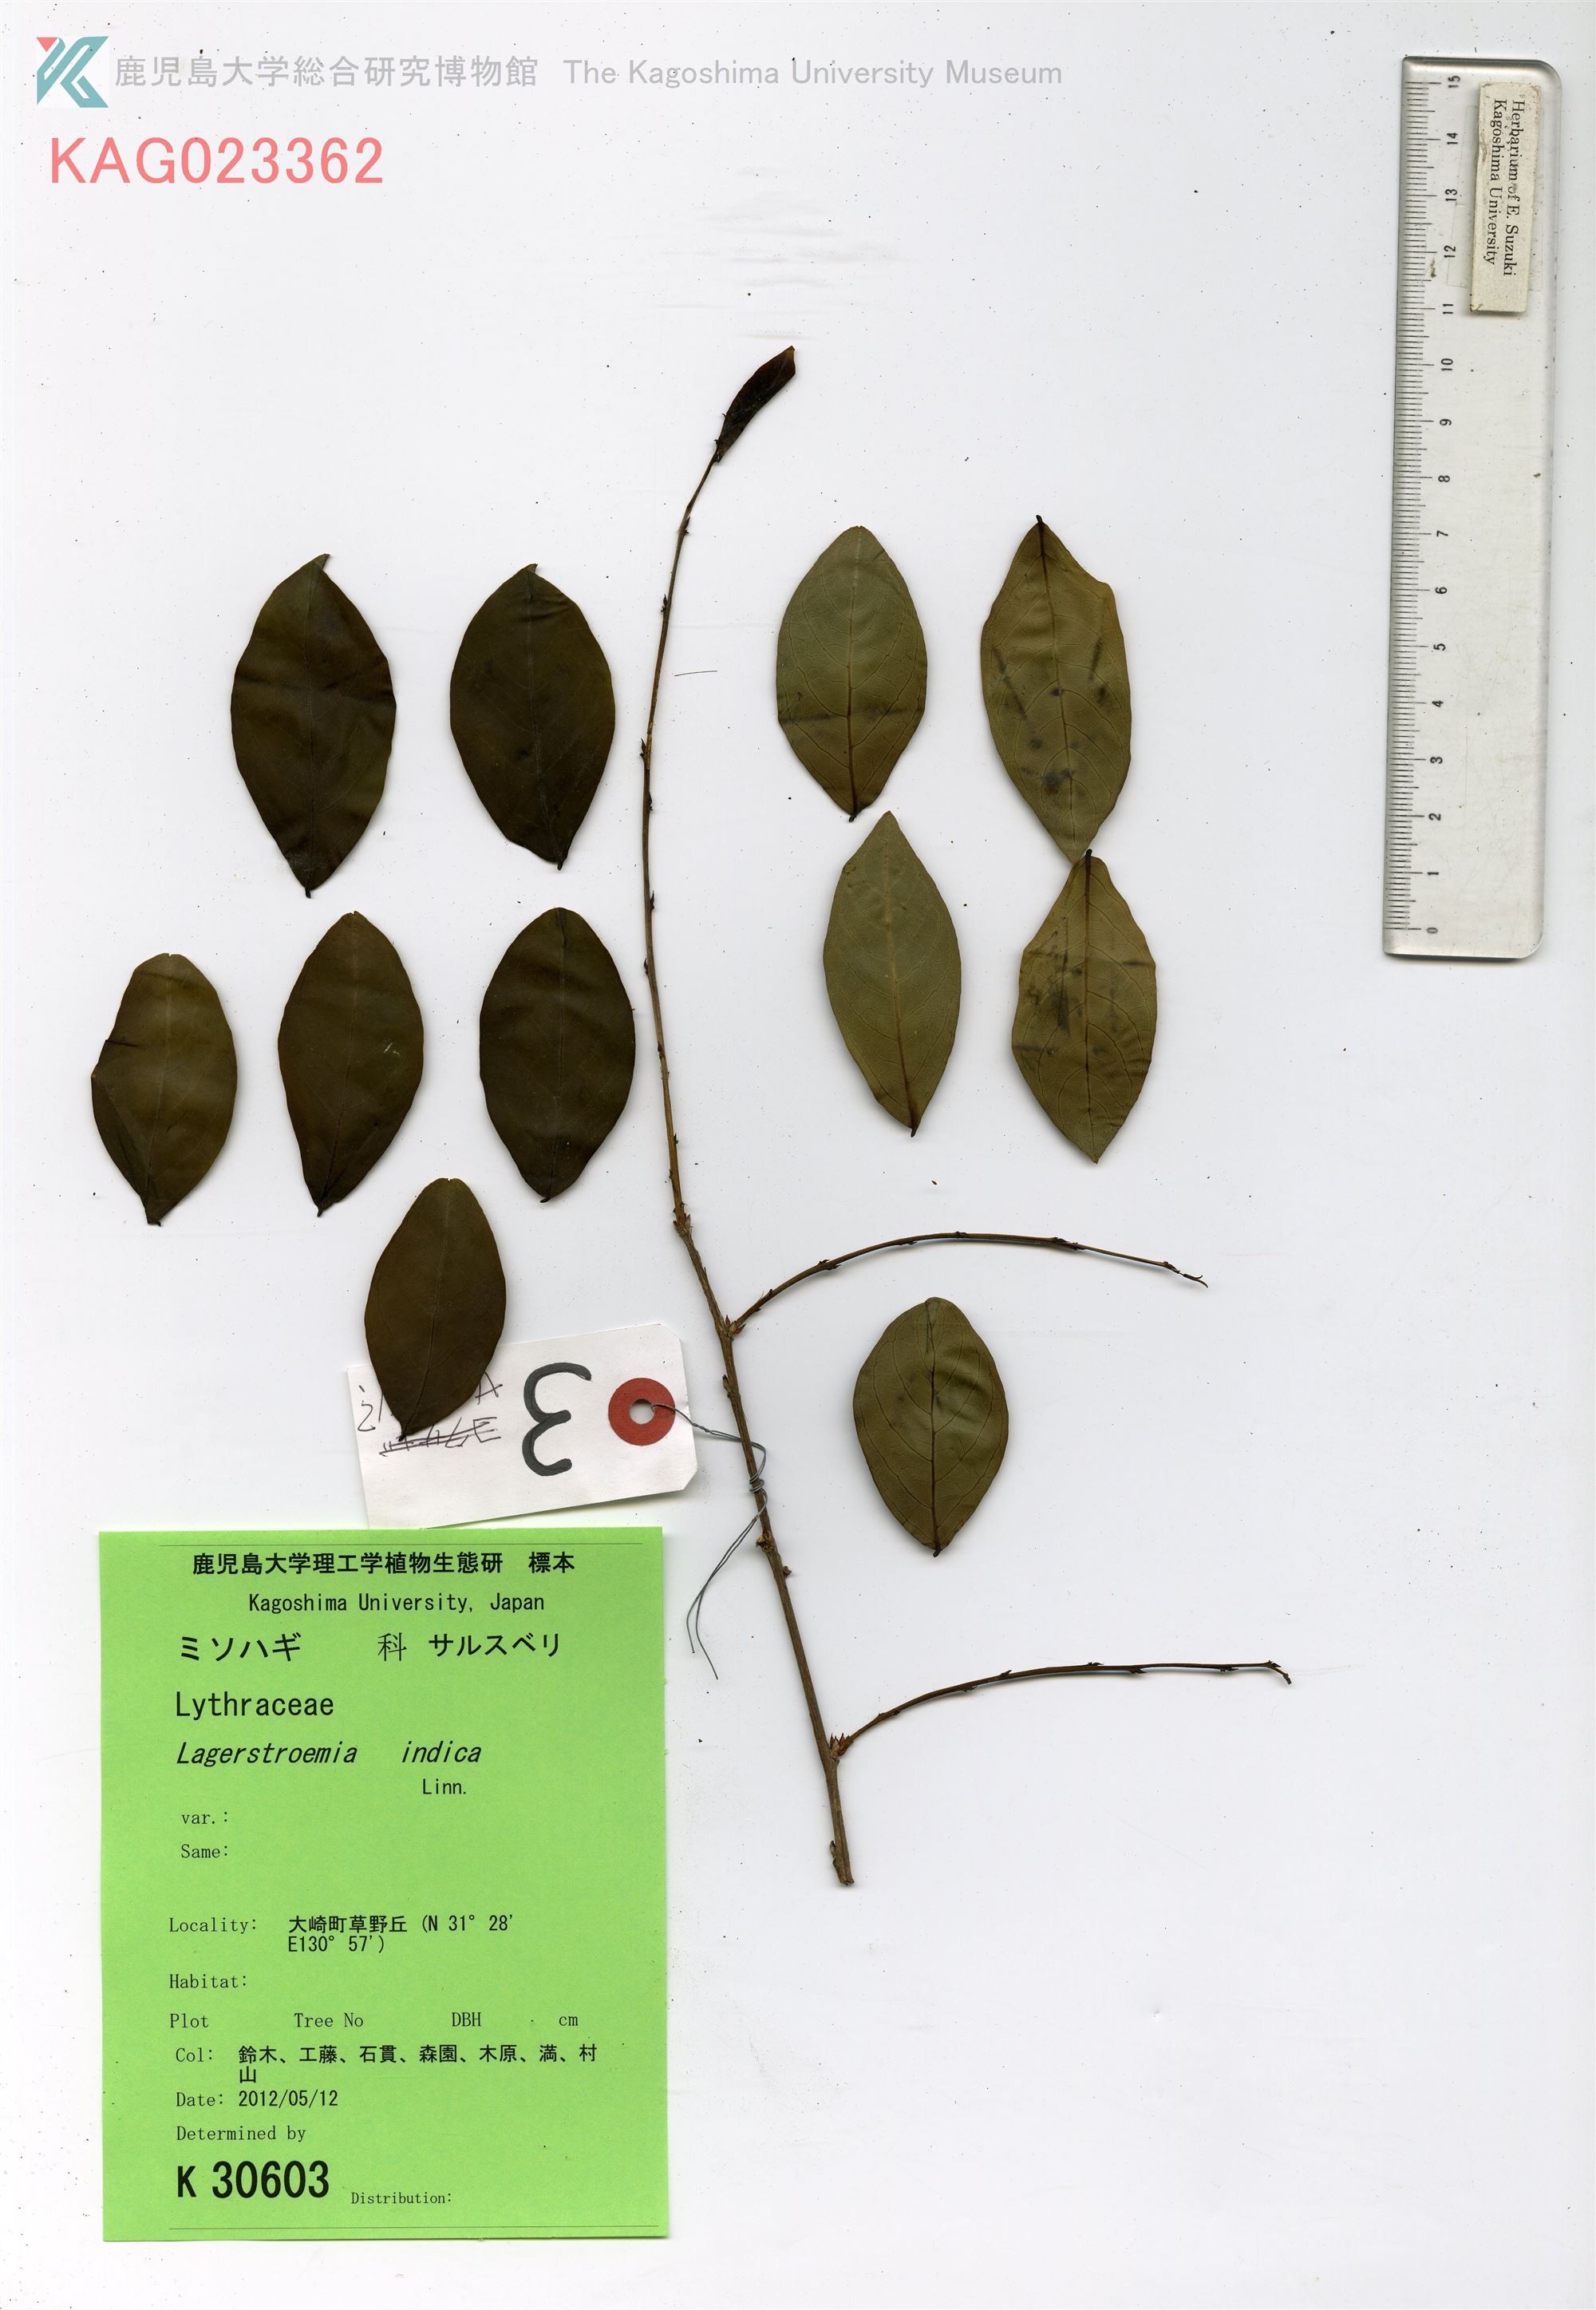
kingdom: Plantae
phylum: Tracheophyta
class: Magnoliopsida
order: Myrtales
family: Lythraceae
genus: Lagerstroemia
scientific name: Lagerstroemia indica
